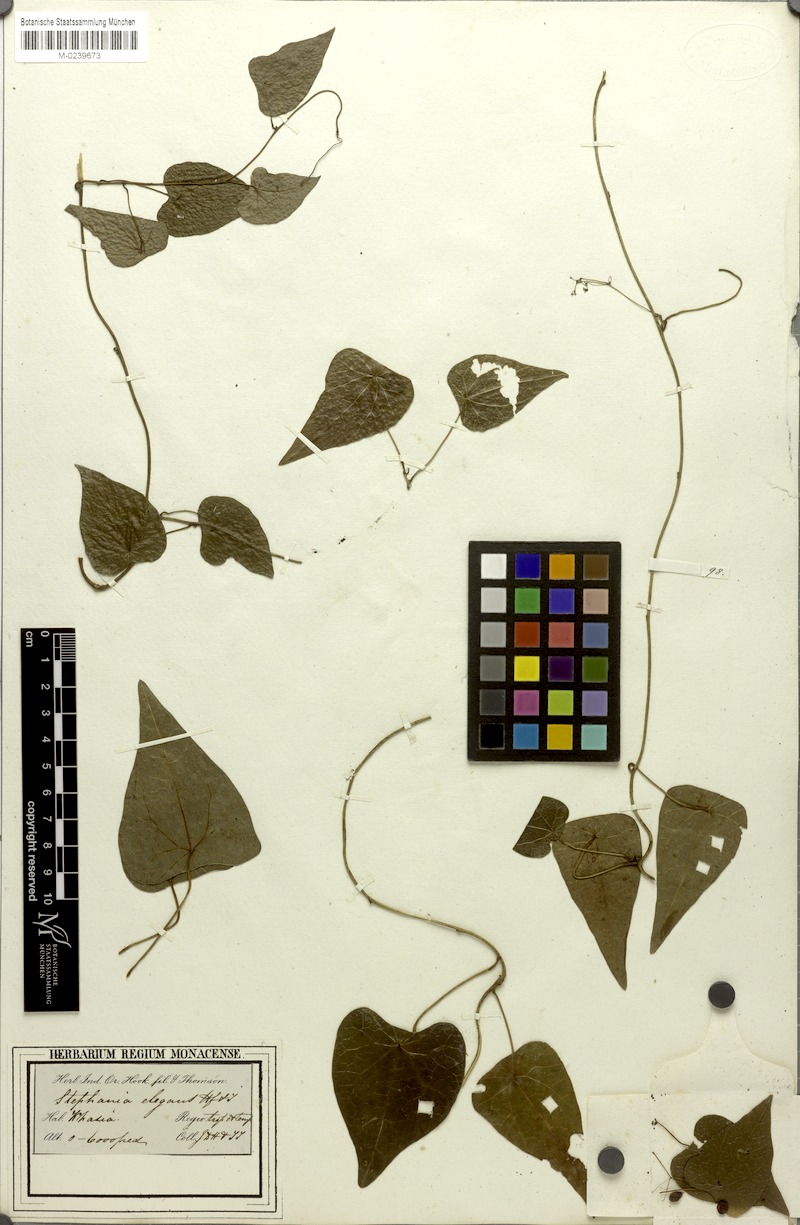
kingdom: Plantae
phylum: Tracheophyta
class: Magnoliopsida
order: Ranunculales
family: Menispermaceae
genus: Stephania
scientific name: Stephania elegans
